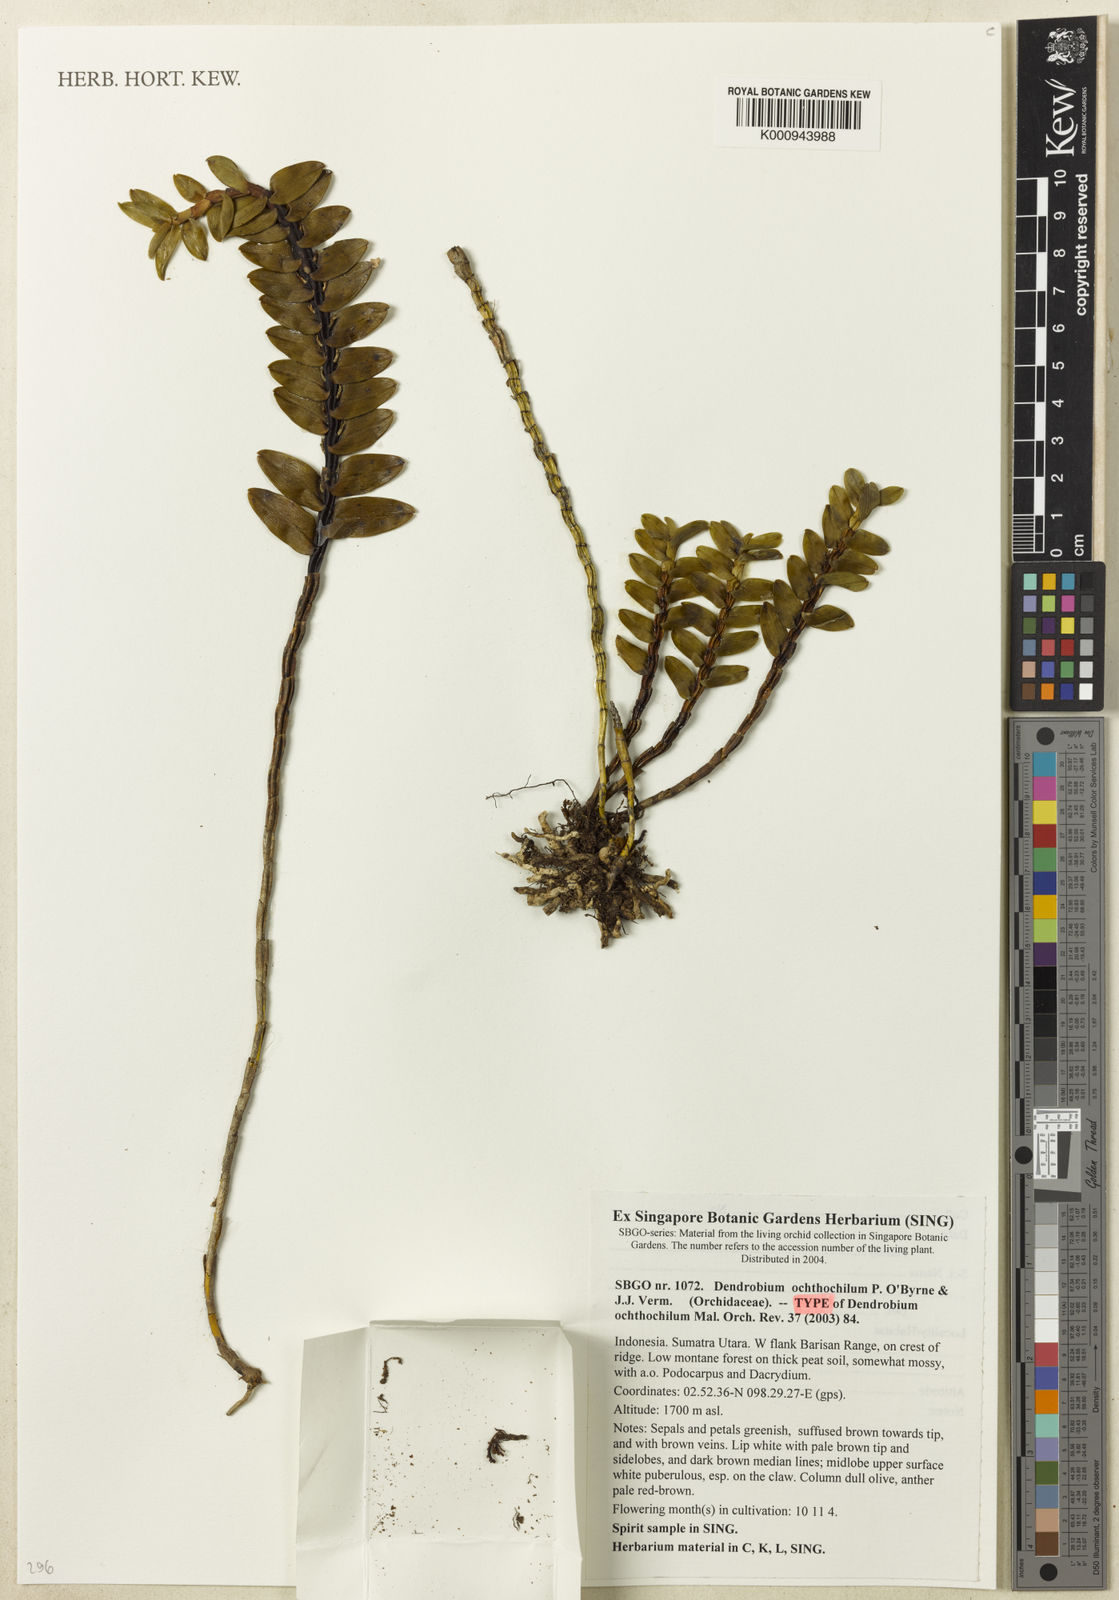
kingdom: Plantae
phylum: Tracheophyta
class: Liliopsida
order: Asparagales
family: Orchidaceae
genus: Dendrobium
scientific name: Dendrobium ochthochilum
